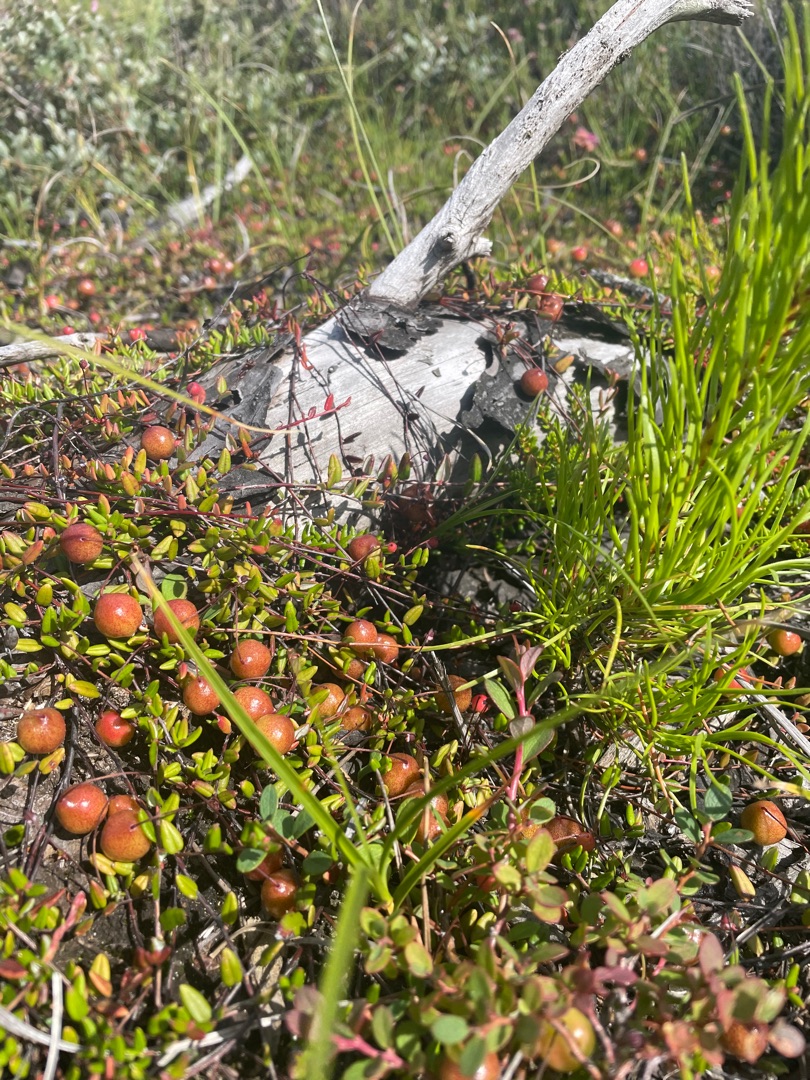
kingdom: Plantae
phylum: Tracheophyta
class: Magnoliopsida
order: Ericales
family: Ericaceae
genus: Vaccinium
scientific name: Vaccinium oxycoccos
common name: Tranebær
